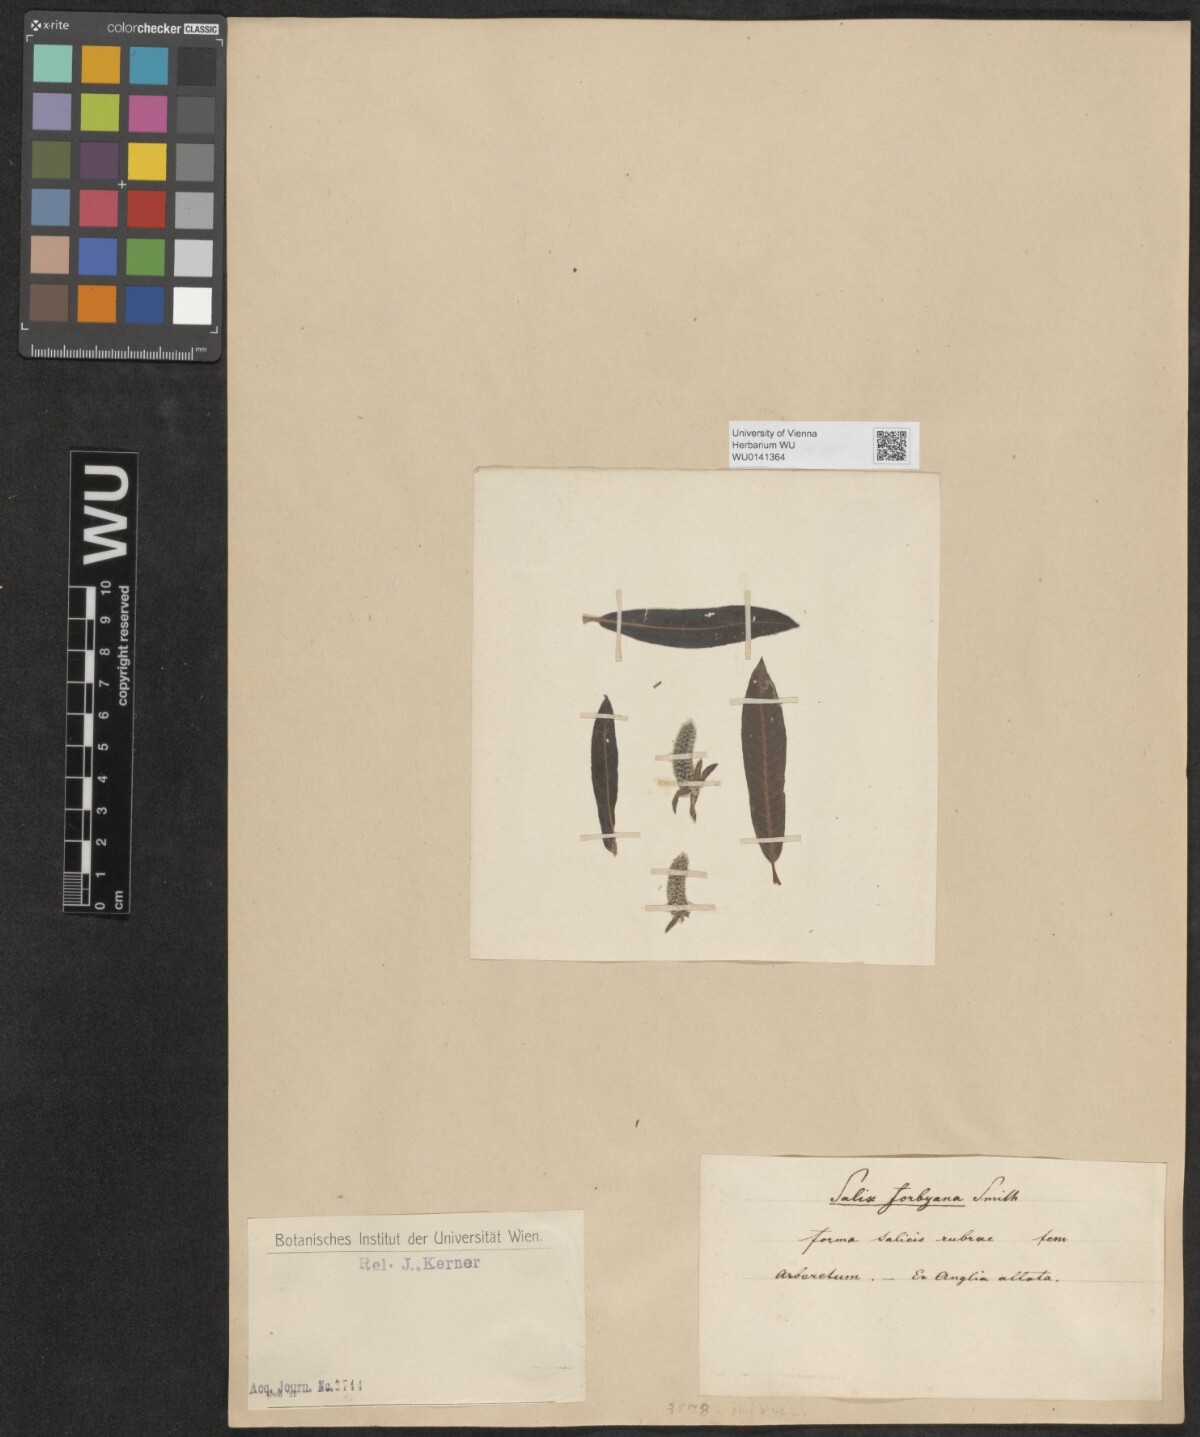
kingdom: Plantae
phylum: Tracheophyta
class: Magnoliopsida
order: Malpighiales
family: Salicaceae
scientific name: Salicaceae
